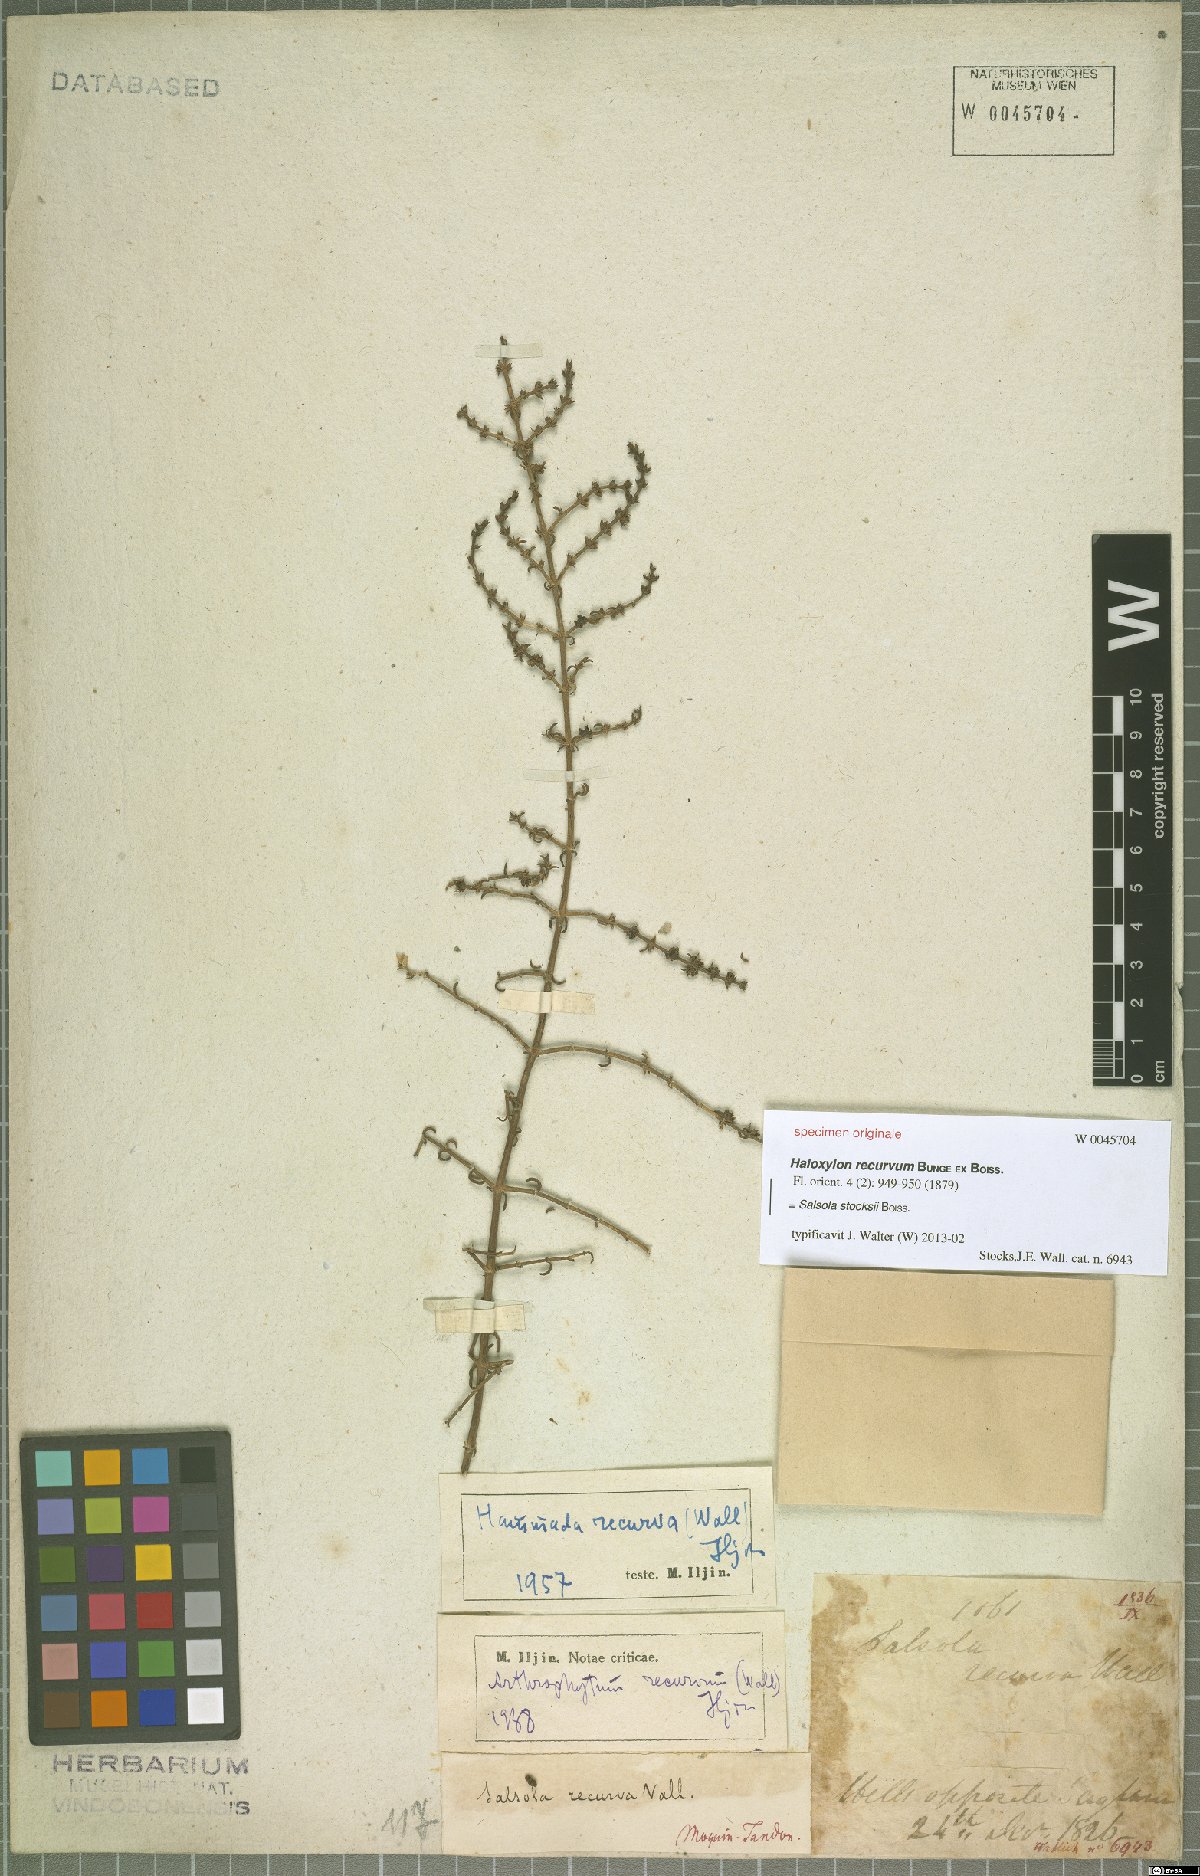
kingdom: Plantae
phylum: Tracheophyta
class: Magnoliopsida
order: Caryophyllales
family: Amaranthaceae
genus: Soda
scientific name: Soda stocksii
